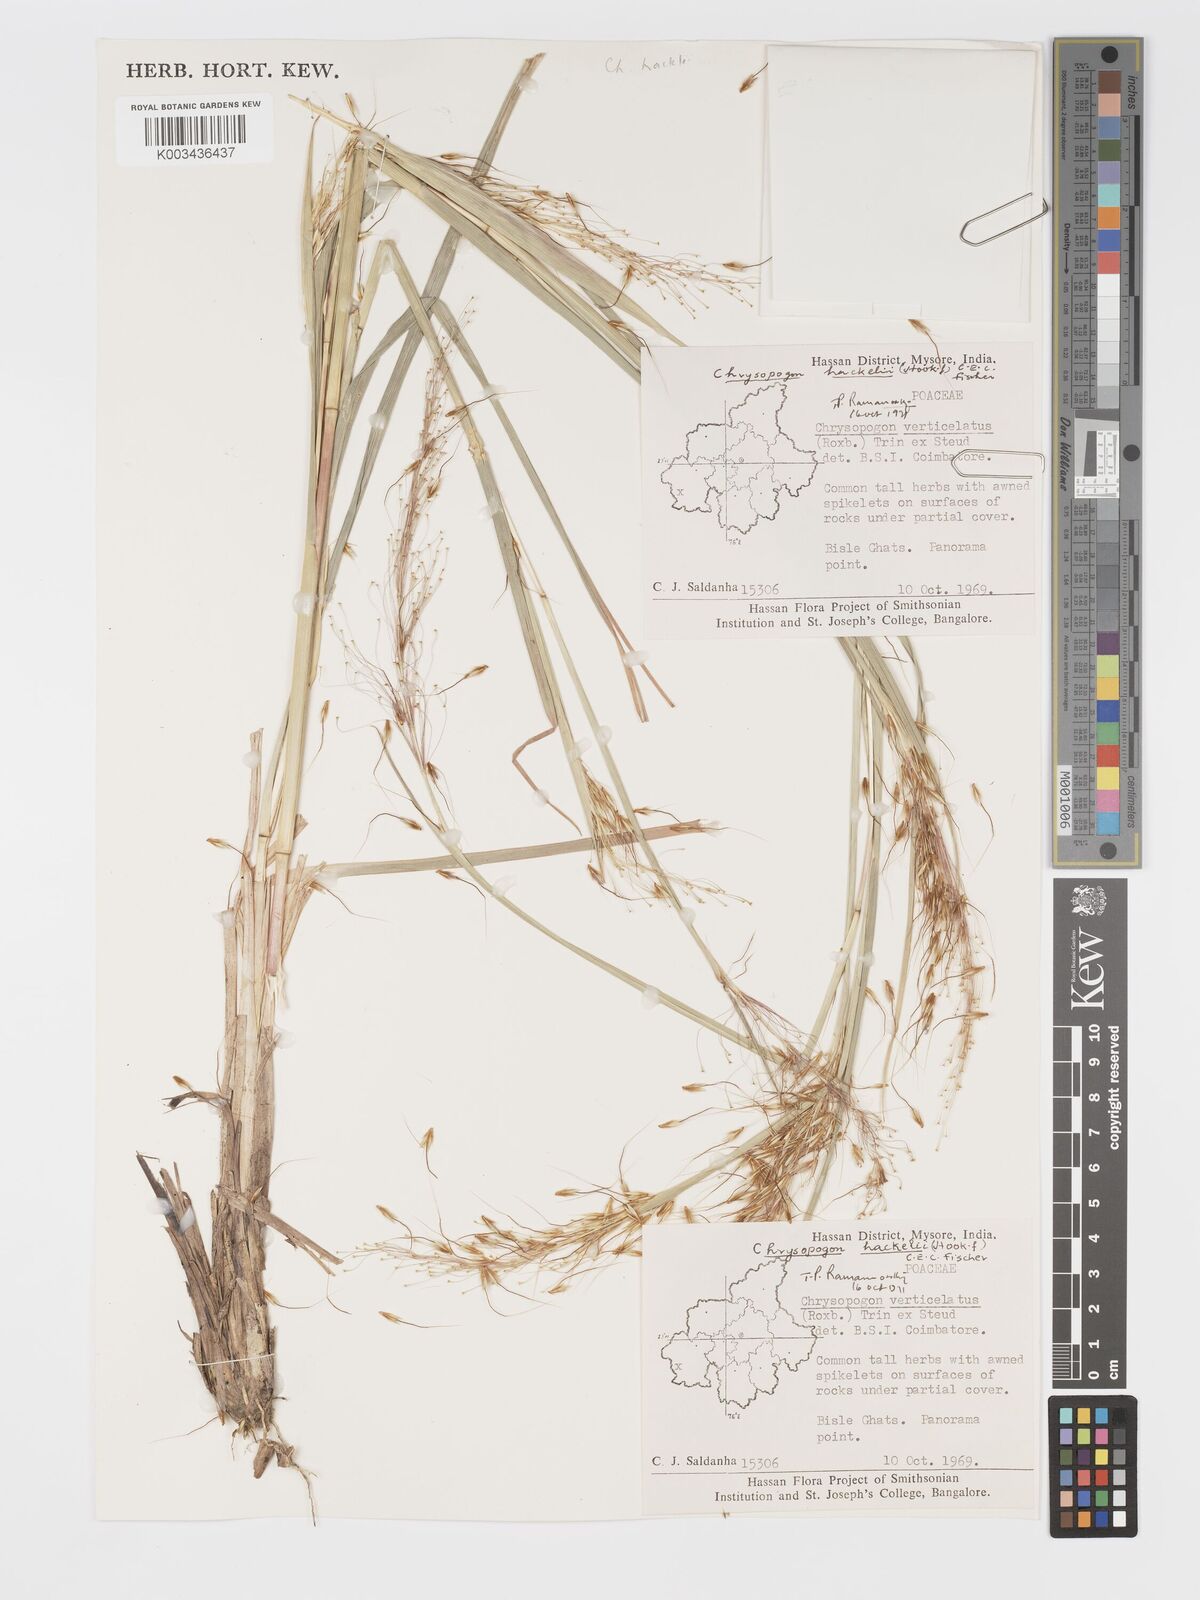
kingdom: Plantae
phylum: Tracheophyta
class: Liliopsida
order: Poales
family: Poaceae
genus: Chrysopogon
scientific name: Chrysopogon hackelii
